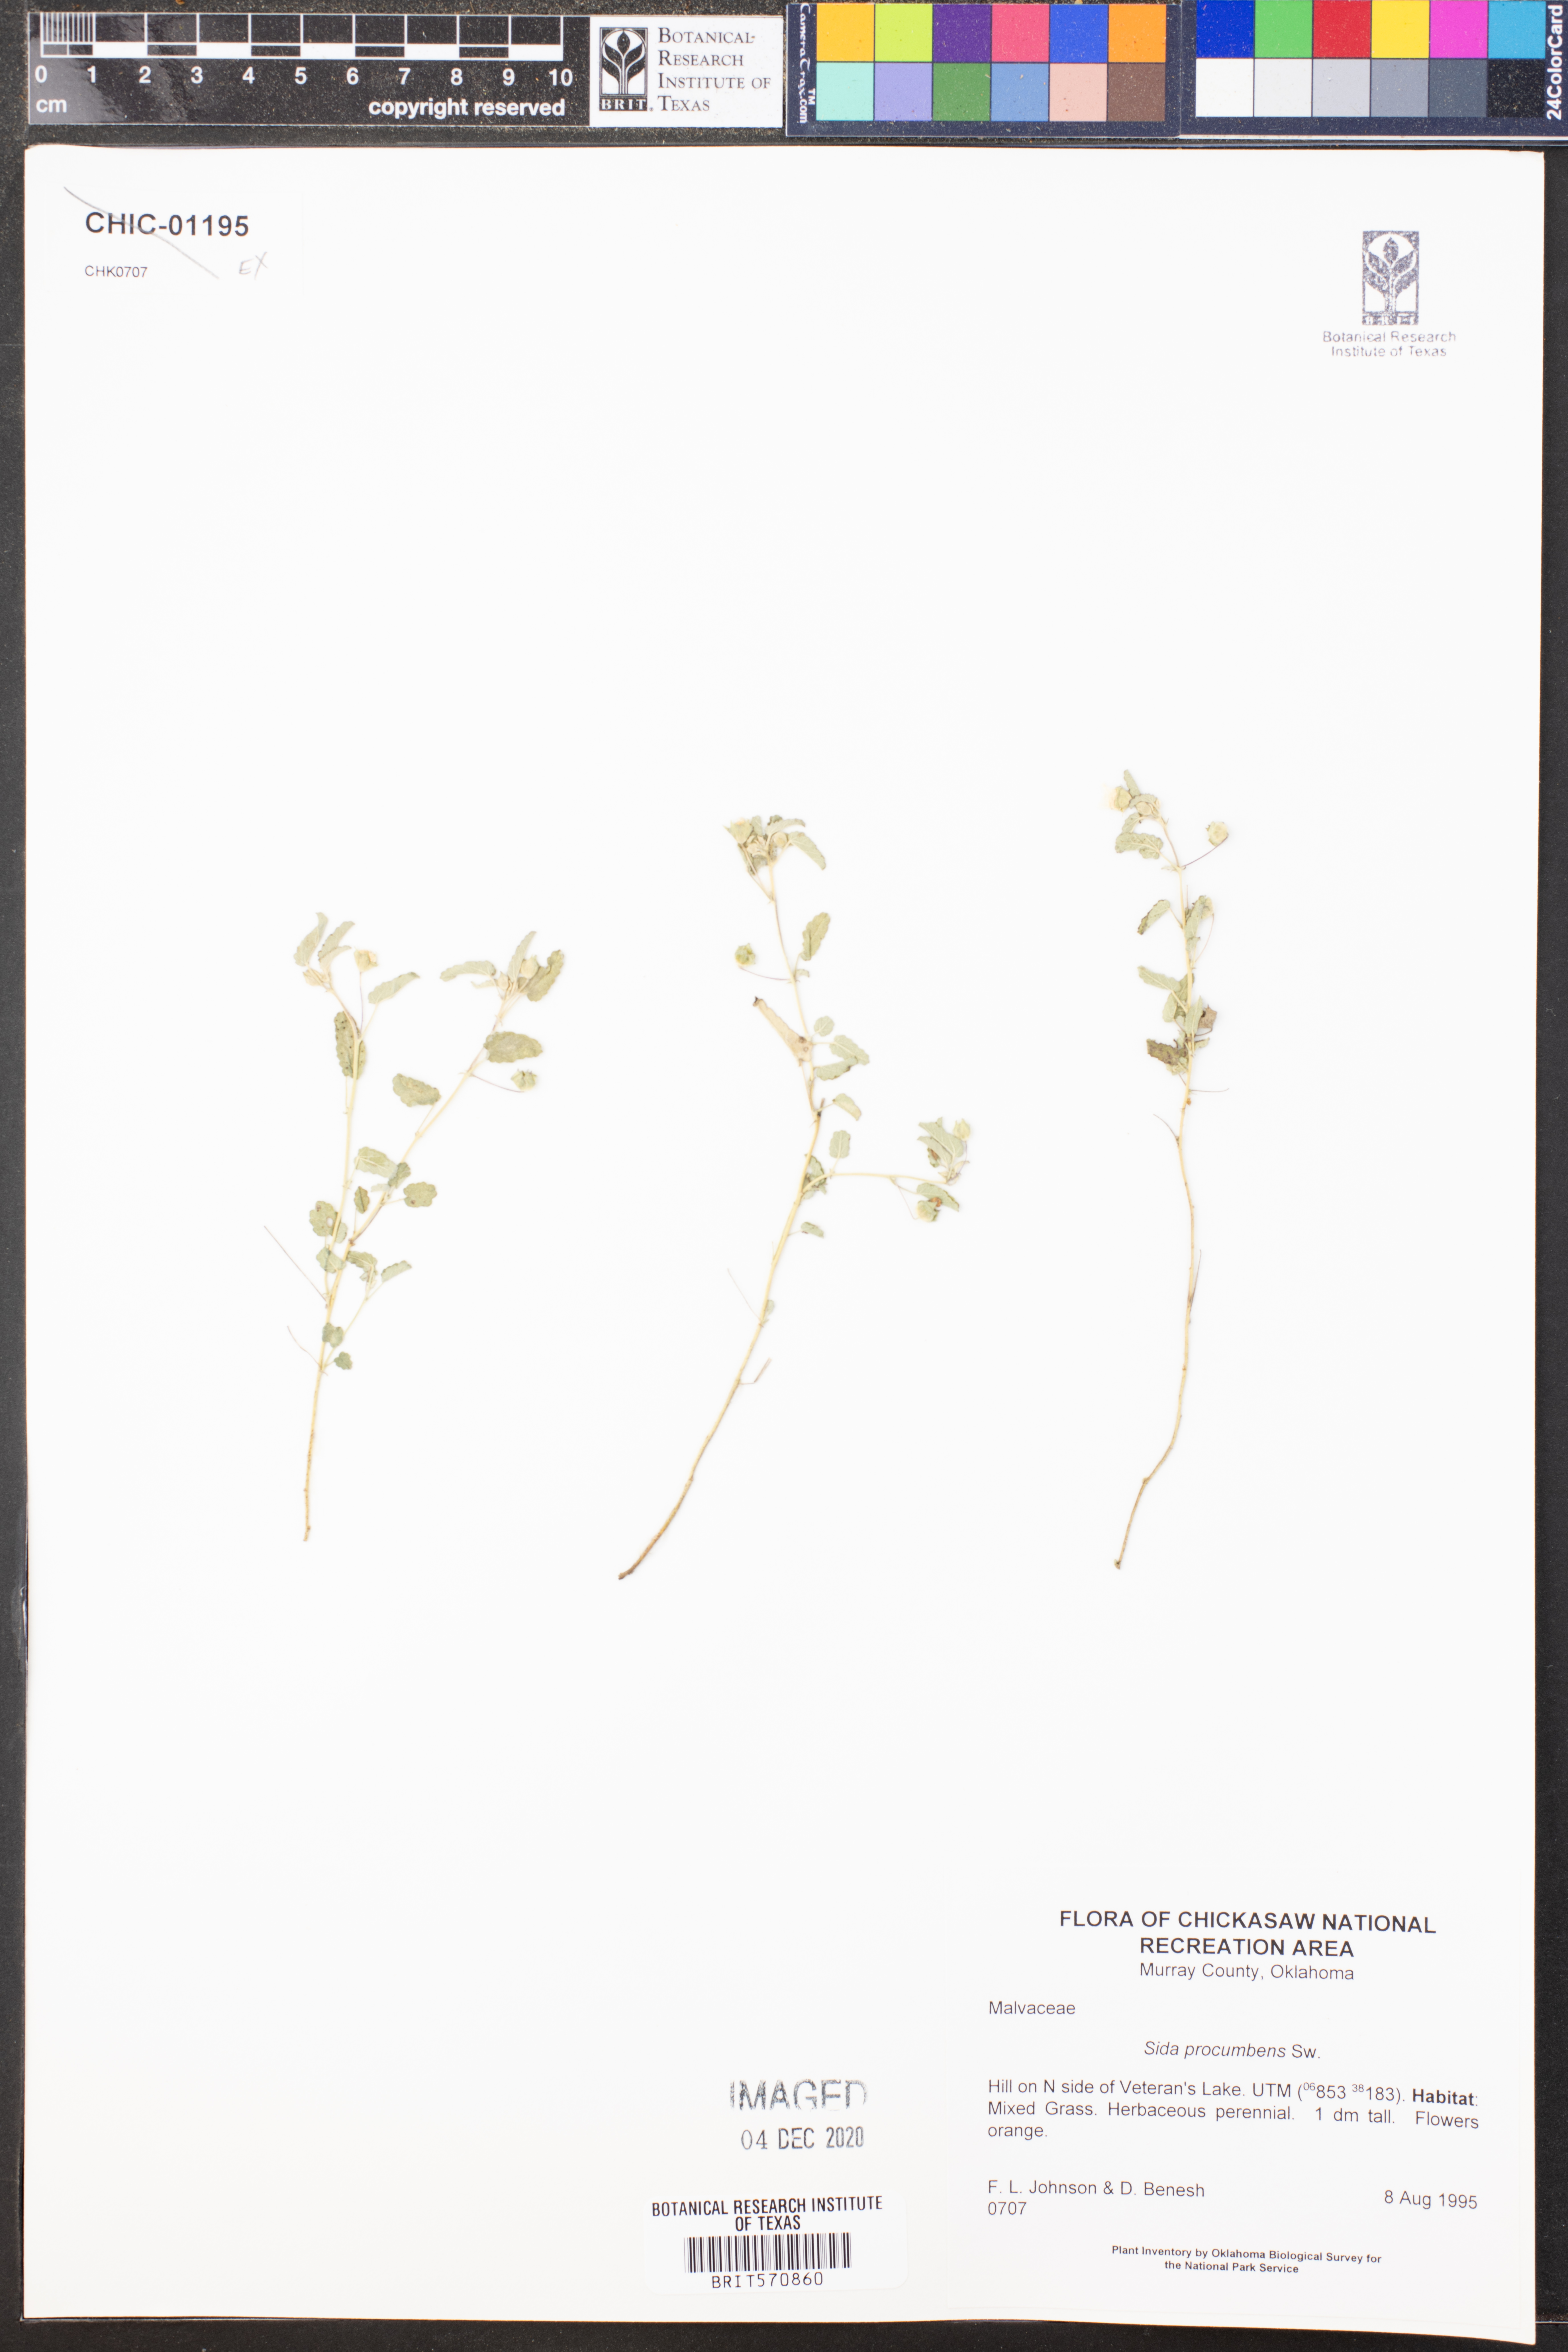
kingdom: Plantae
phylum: Tracheophyta
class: Magnoliopsida
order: Malvales
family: Malvaceae
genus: Sida
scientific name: Sida abutilifolia
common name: Spreading fanpetals
